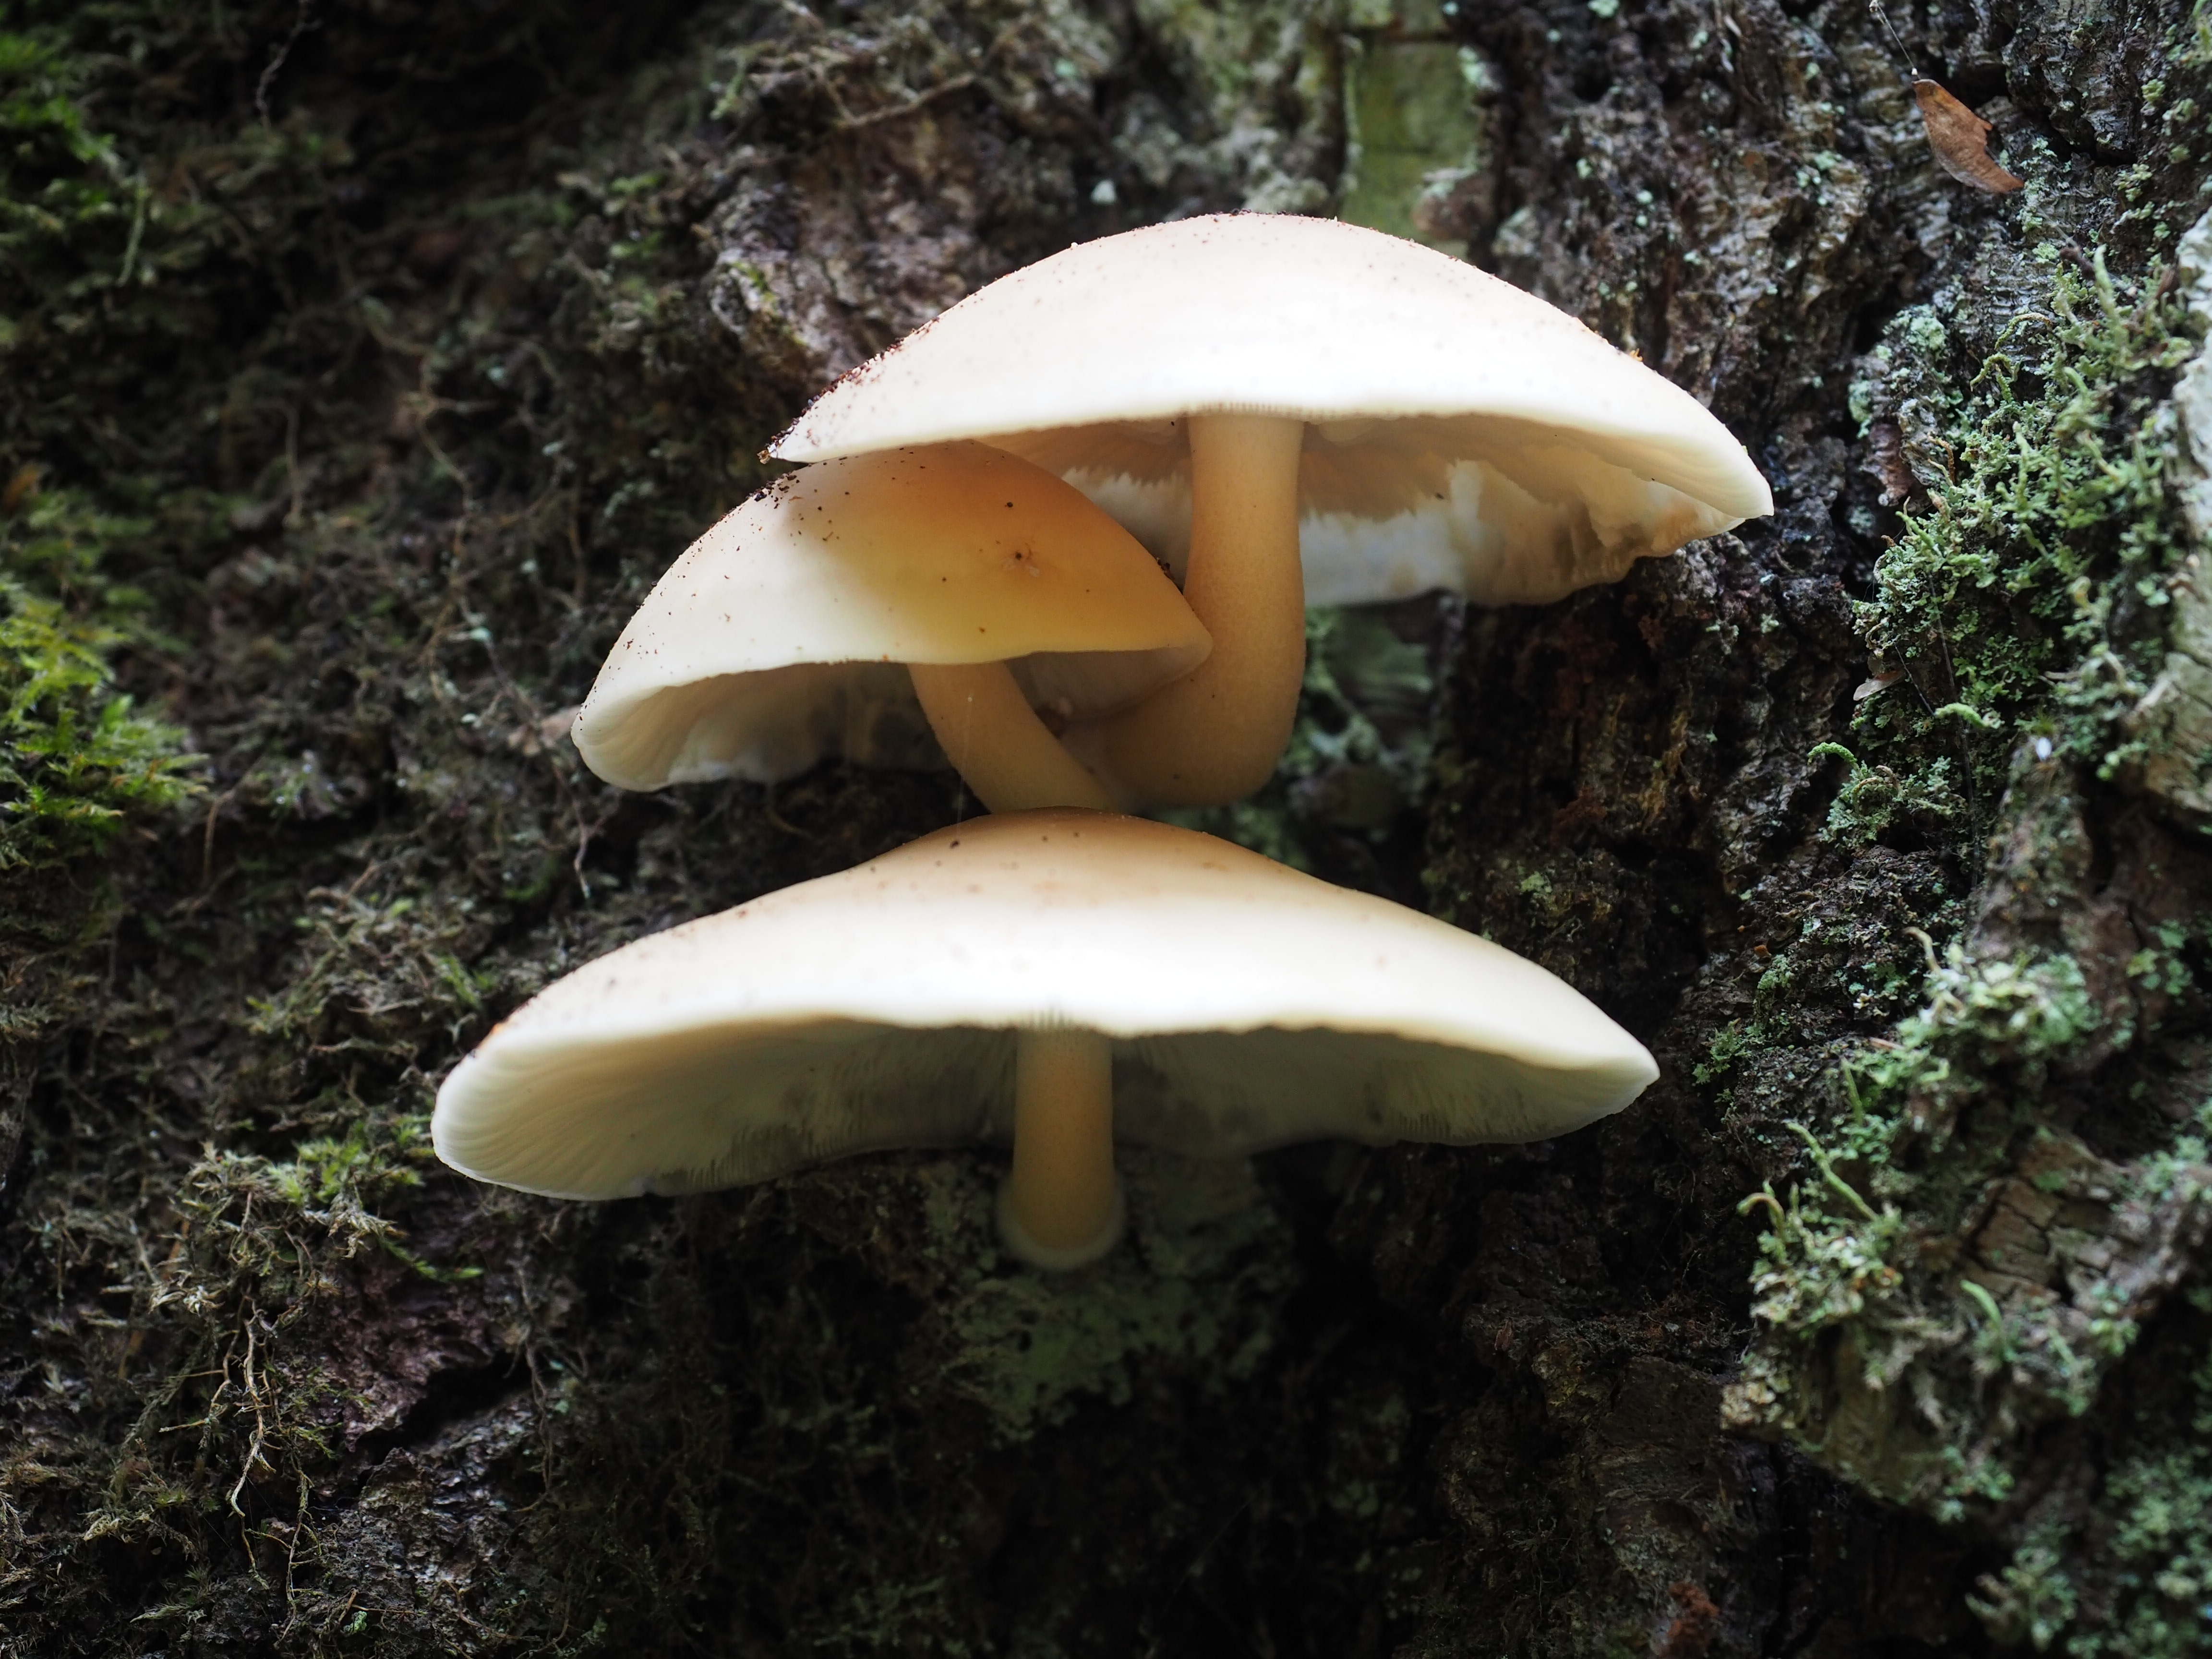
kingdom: Fungi
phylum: Basidiomycota
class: Agaricomycetes
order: Agaricales
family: Pleurotaceae
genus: Pleurotus
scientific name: Pleurotus pulmonarius
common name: Pale oyster
